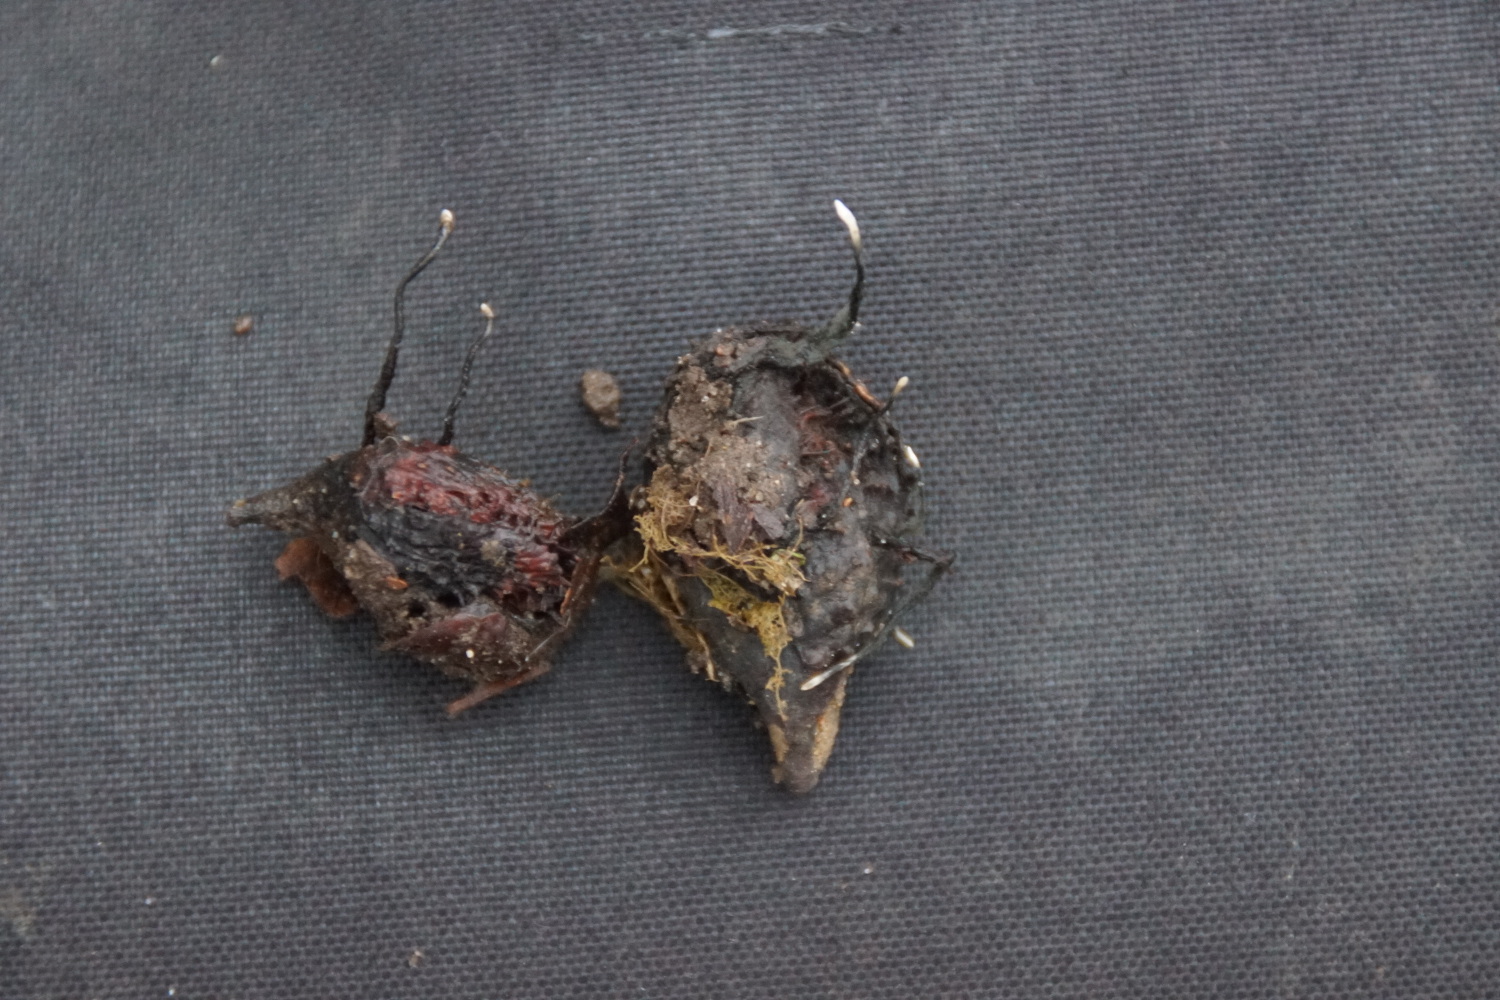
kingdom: Fungi
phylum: Ascomycota
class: Sordariomycetes
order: Xylariales
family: Xylariaceae
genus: Xylaria
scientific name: Xylaria carpophila
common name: bogskål-stødsvamp
